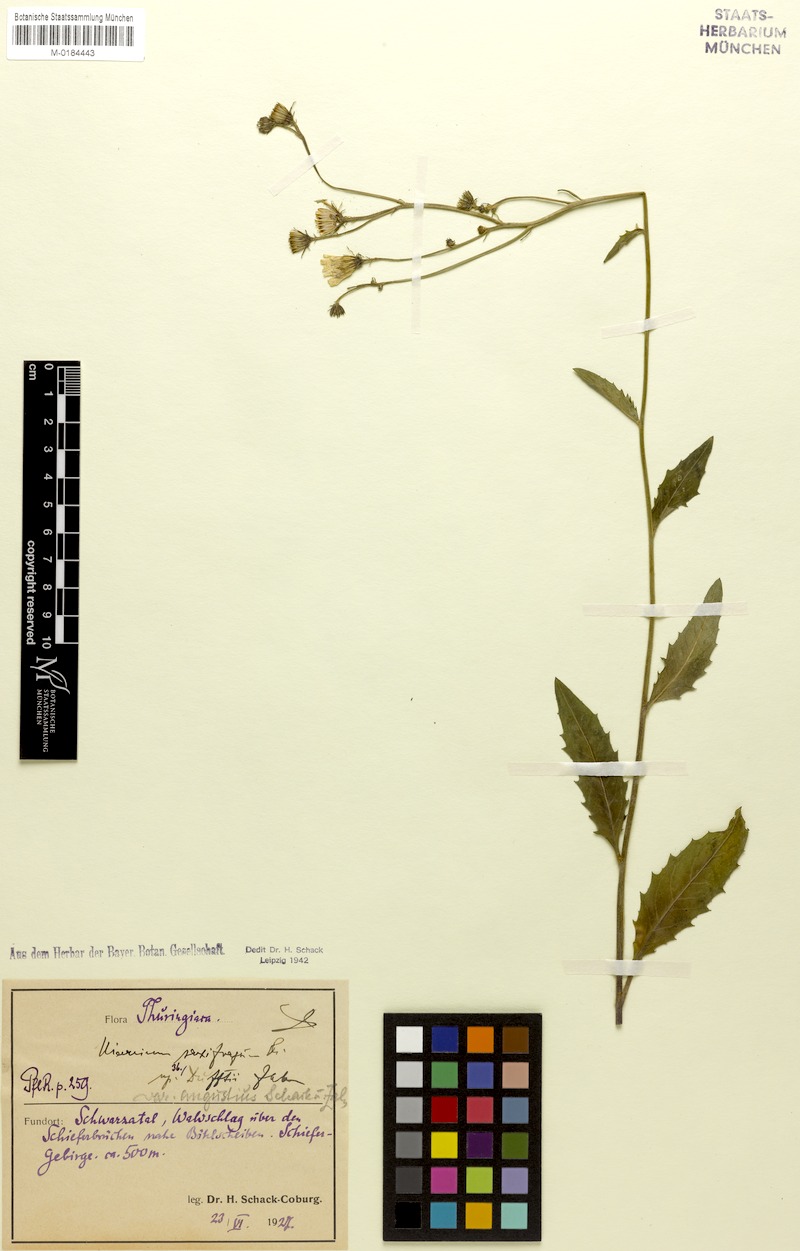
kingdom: Plantae
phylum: Tracheophyta
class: Magnoliopsida
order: Asterales
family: Asteraceae
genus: Hieracium
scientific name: Hieracium saxifragum
